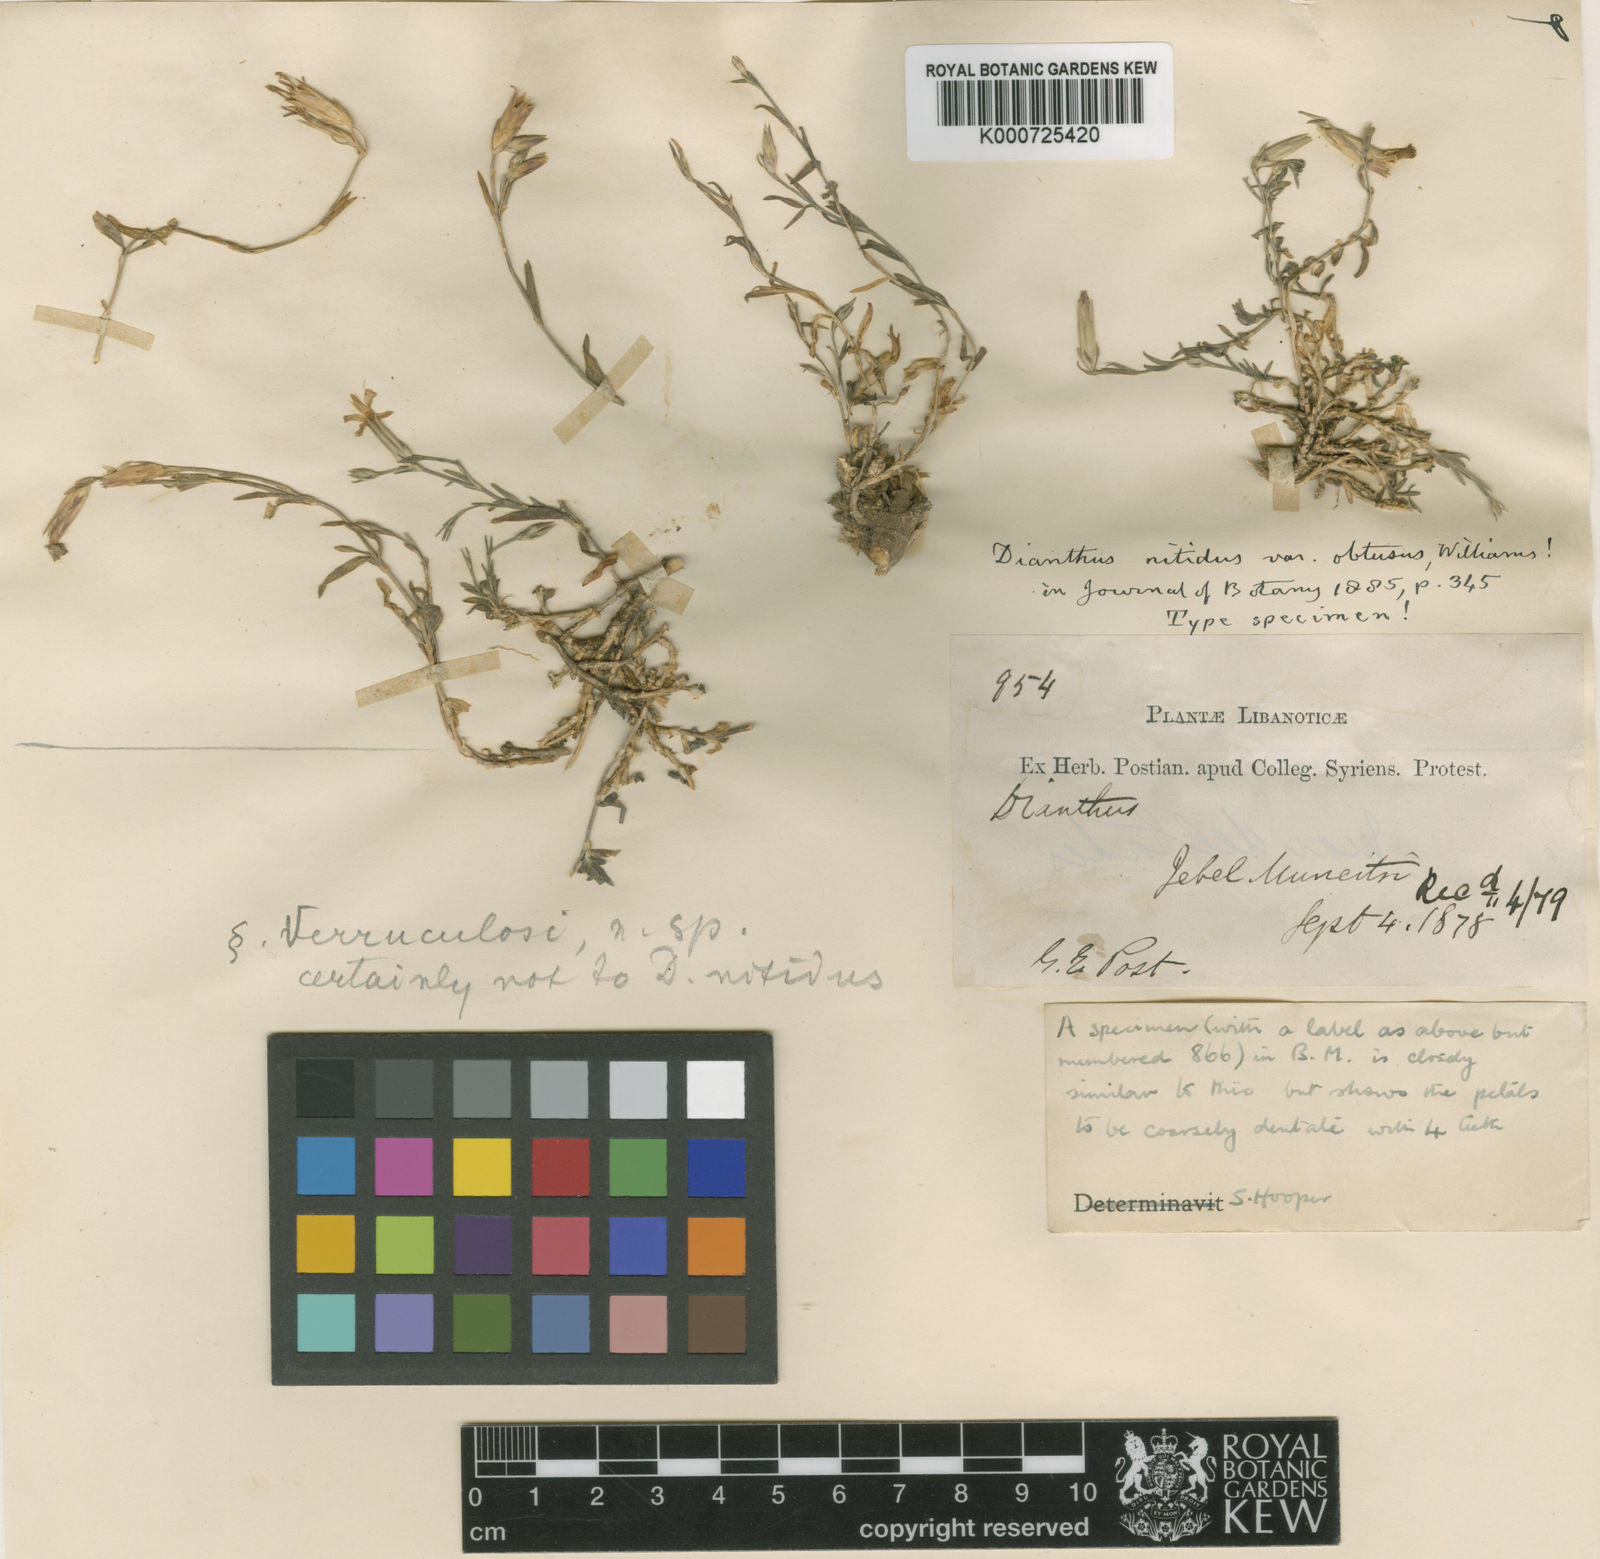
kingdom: Plantae
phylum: Tracheophyta
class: Magnoliopsida
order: Caryophyllales
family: Caryophyllaceae
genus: Dianthus
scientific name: Dianthus strictus
